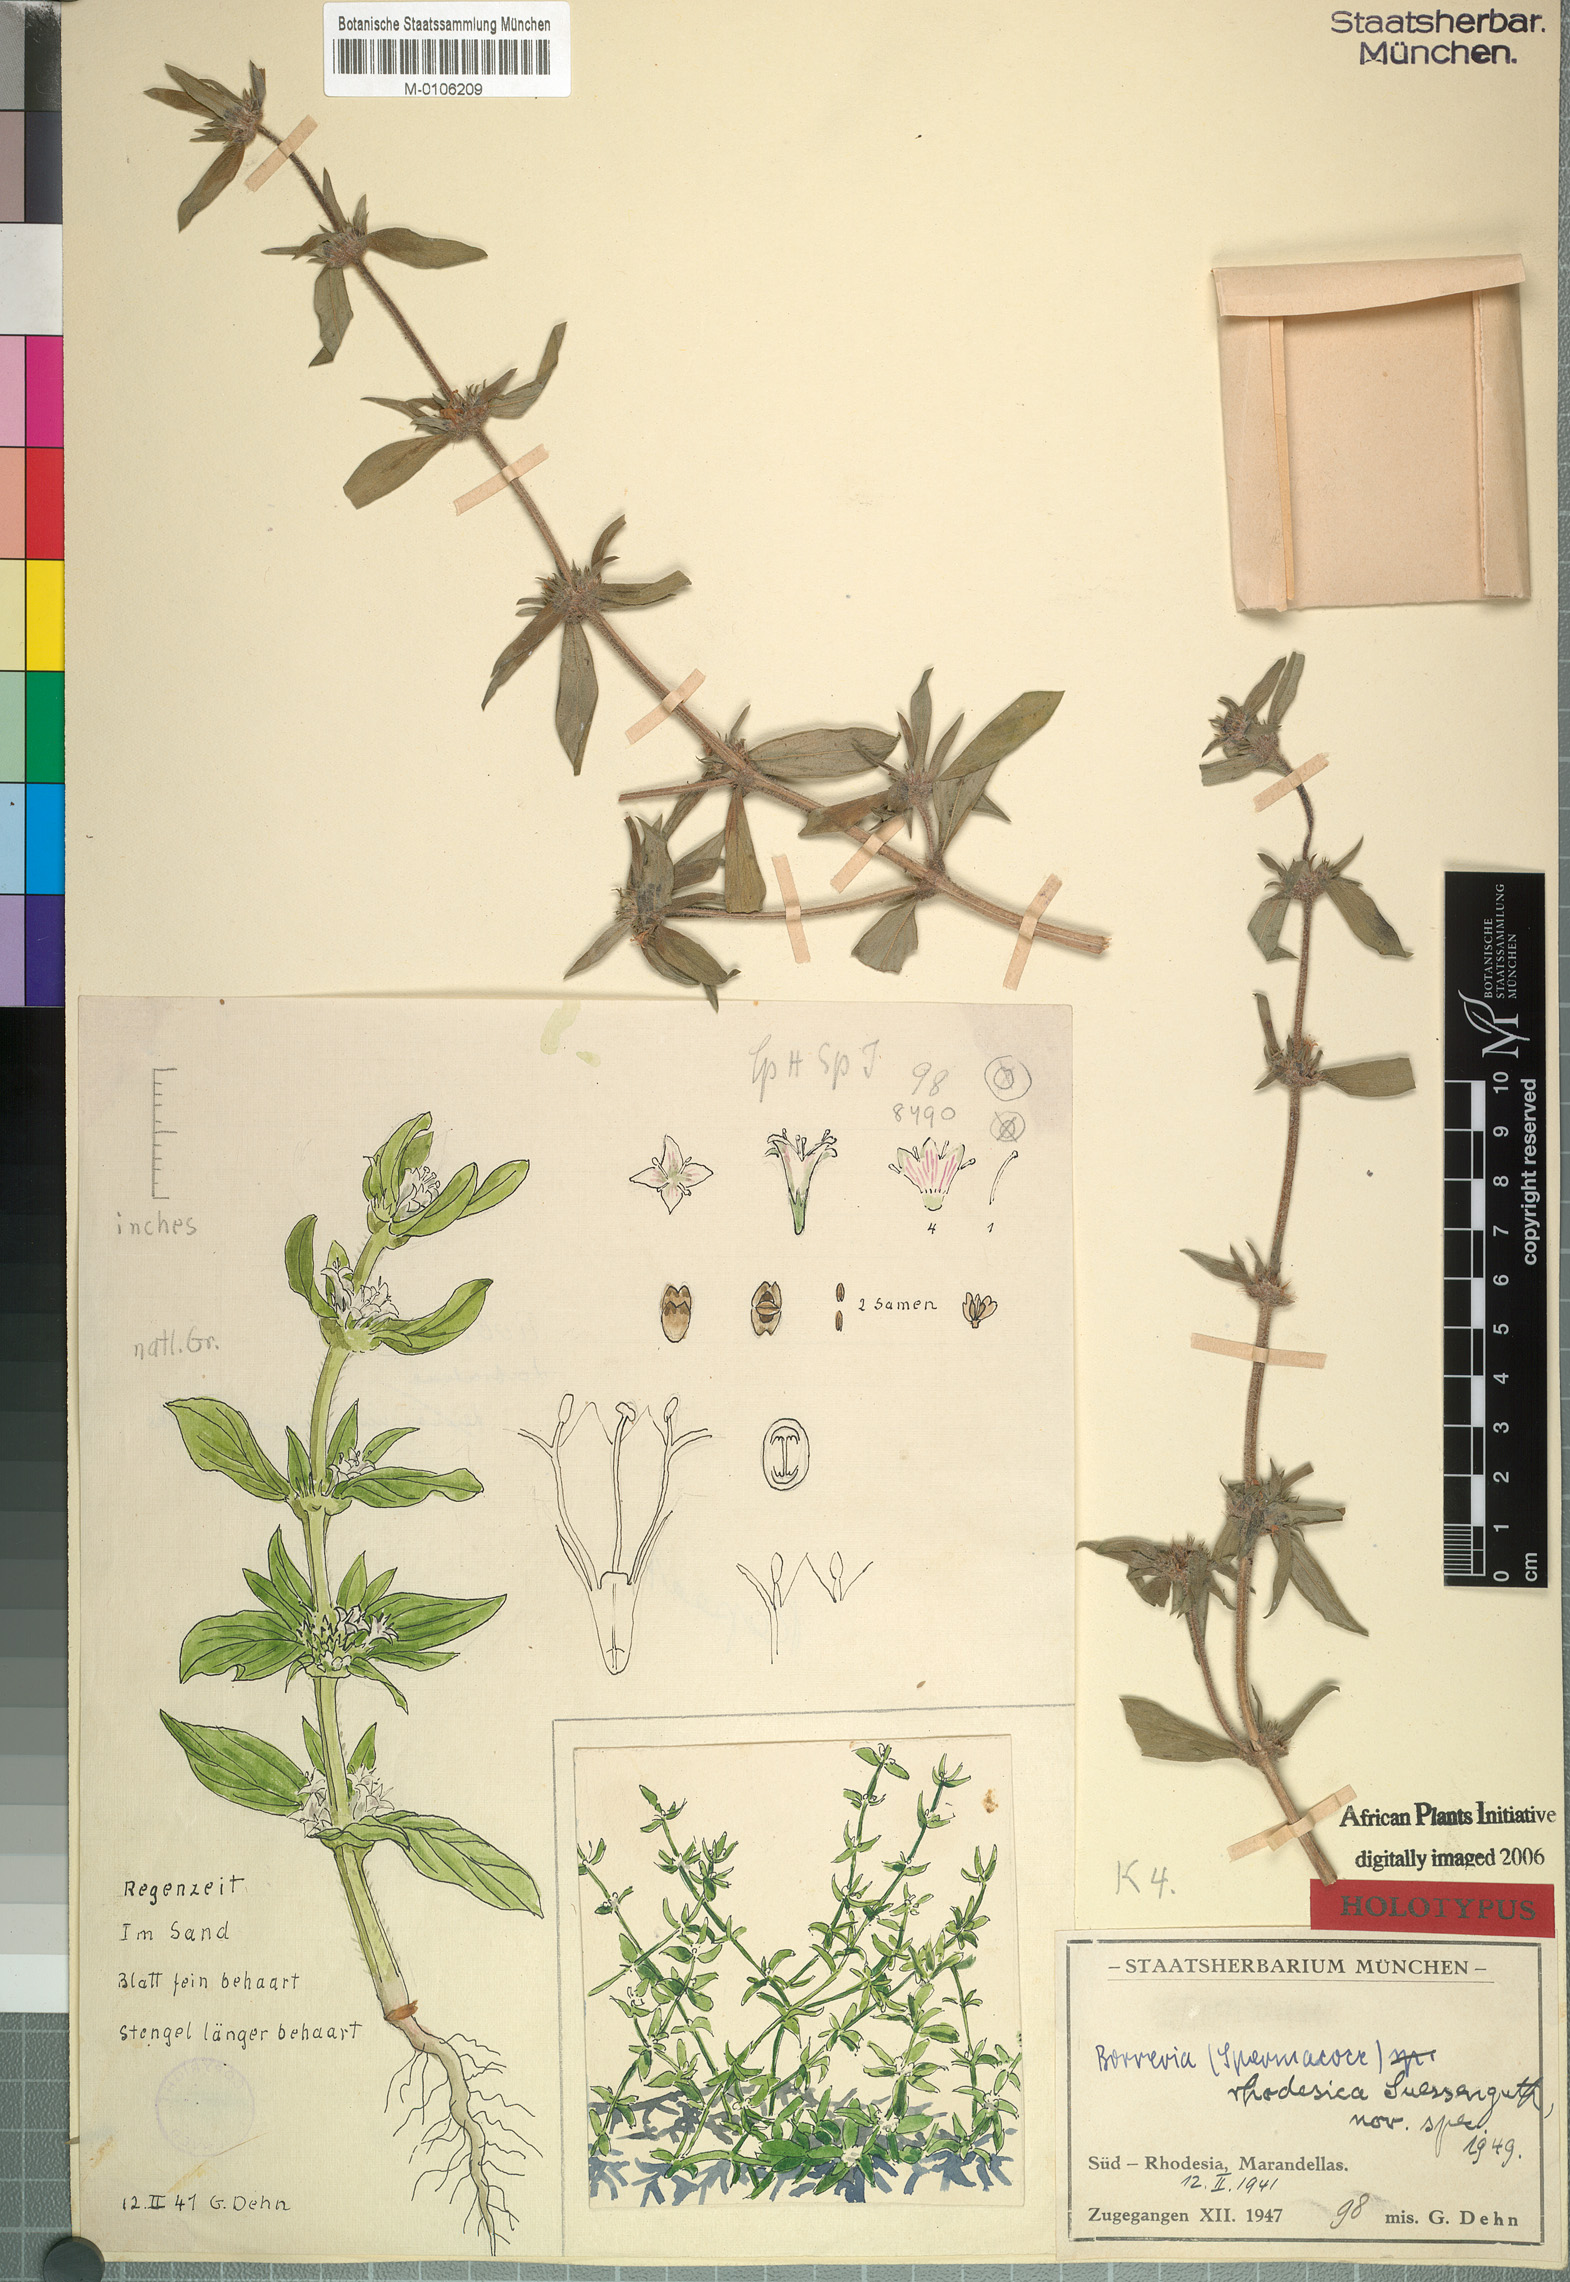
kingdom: Plantae
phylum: Tracheophyta
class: Magnoliopsida
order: Gentianales
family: Rubiaceae
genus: Spermacoce
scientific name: Spermacoce senensis
